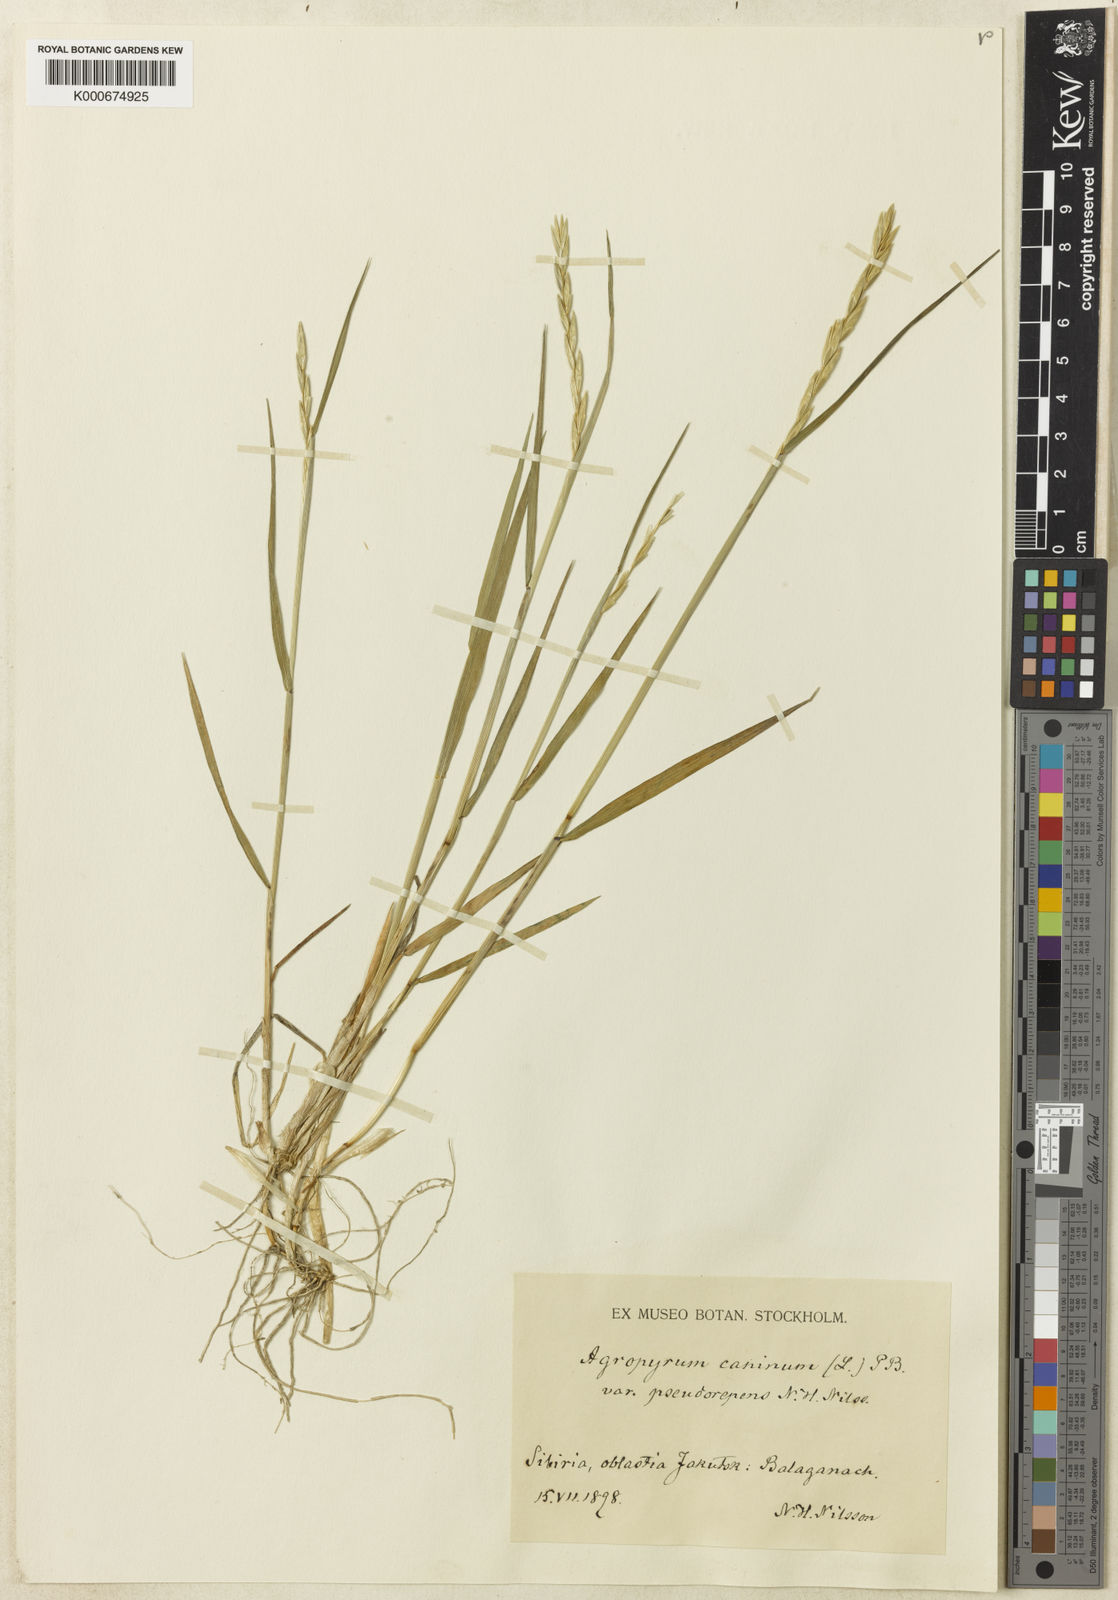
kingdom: Plantae
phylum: Tracheophyta
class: Liliopsida
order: Poales
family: Poaceae
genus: Elymus
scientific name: Elymus caninus
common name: Bearded couch
